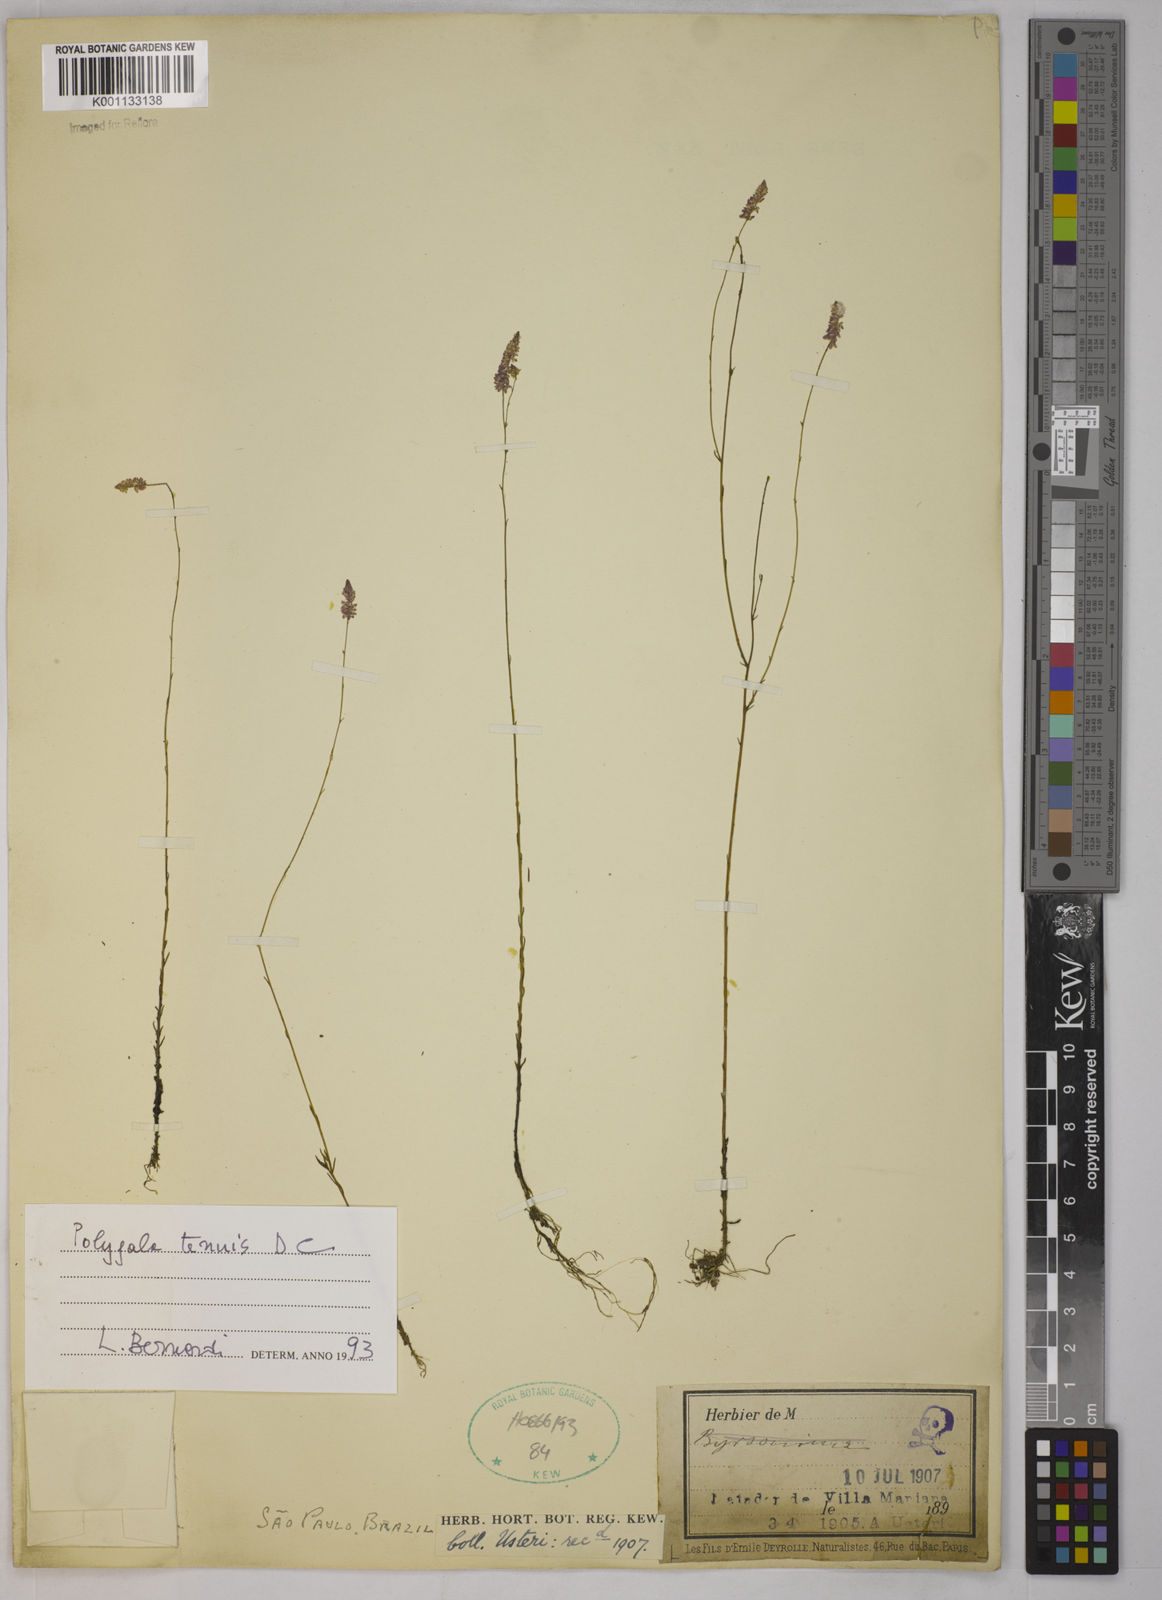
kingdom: Plantae
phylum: Tracheophyta
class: Magnoliopsida
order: Fabales
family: Polygalaceae
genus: Polygala
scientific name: Polygala tenuis
